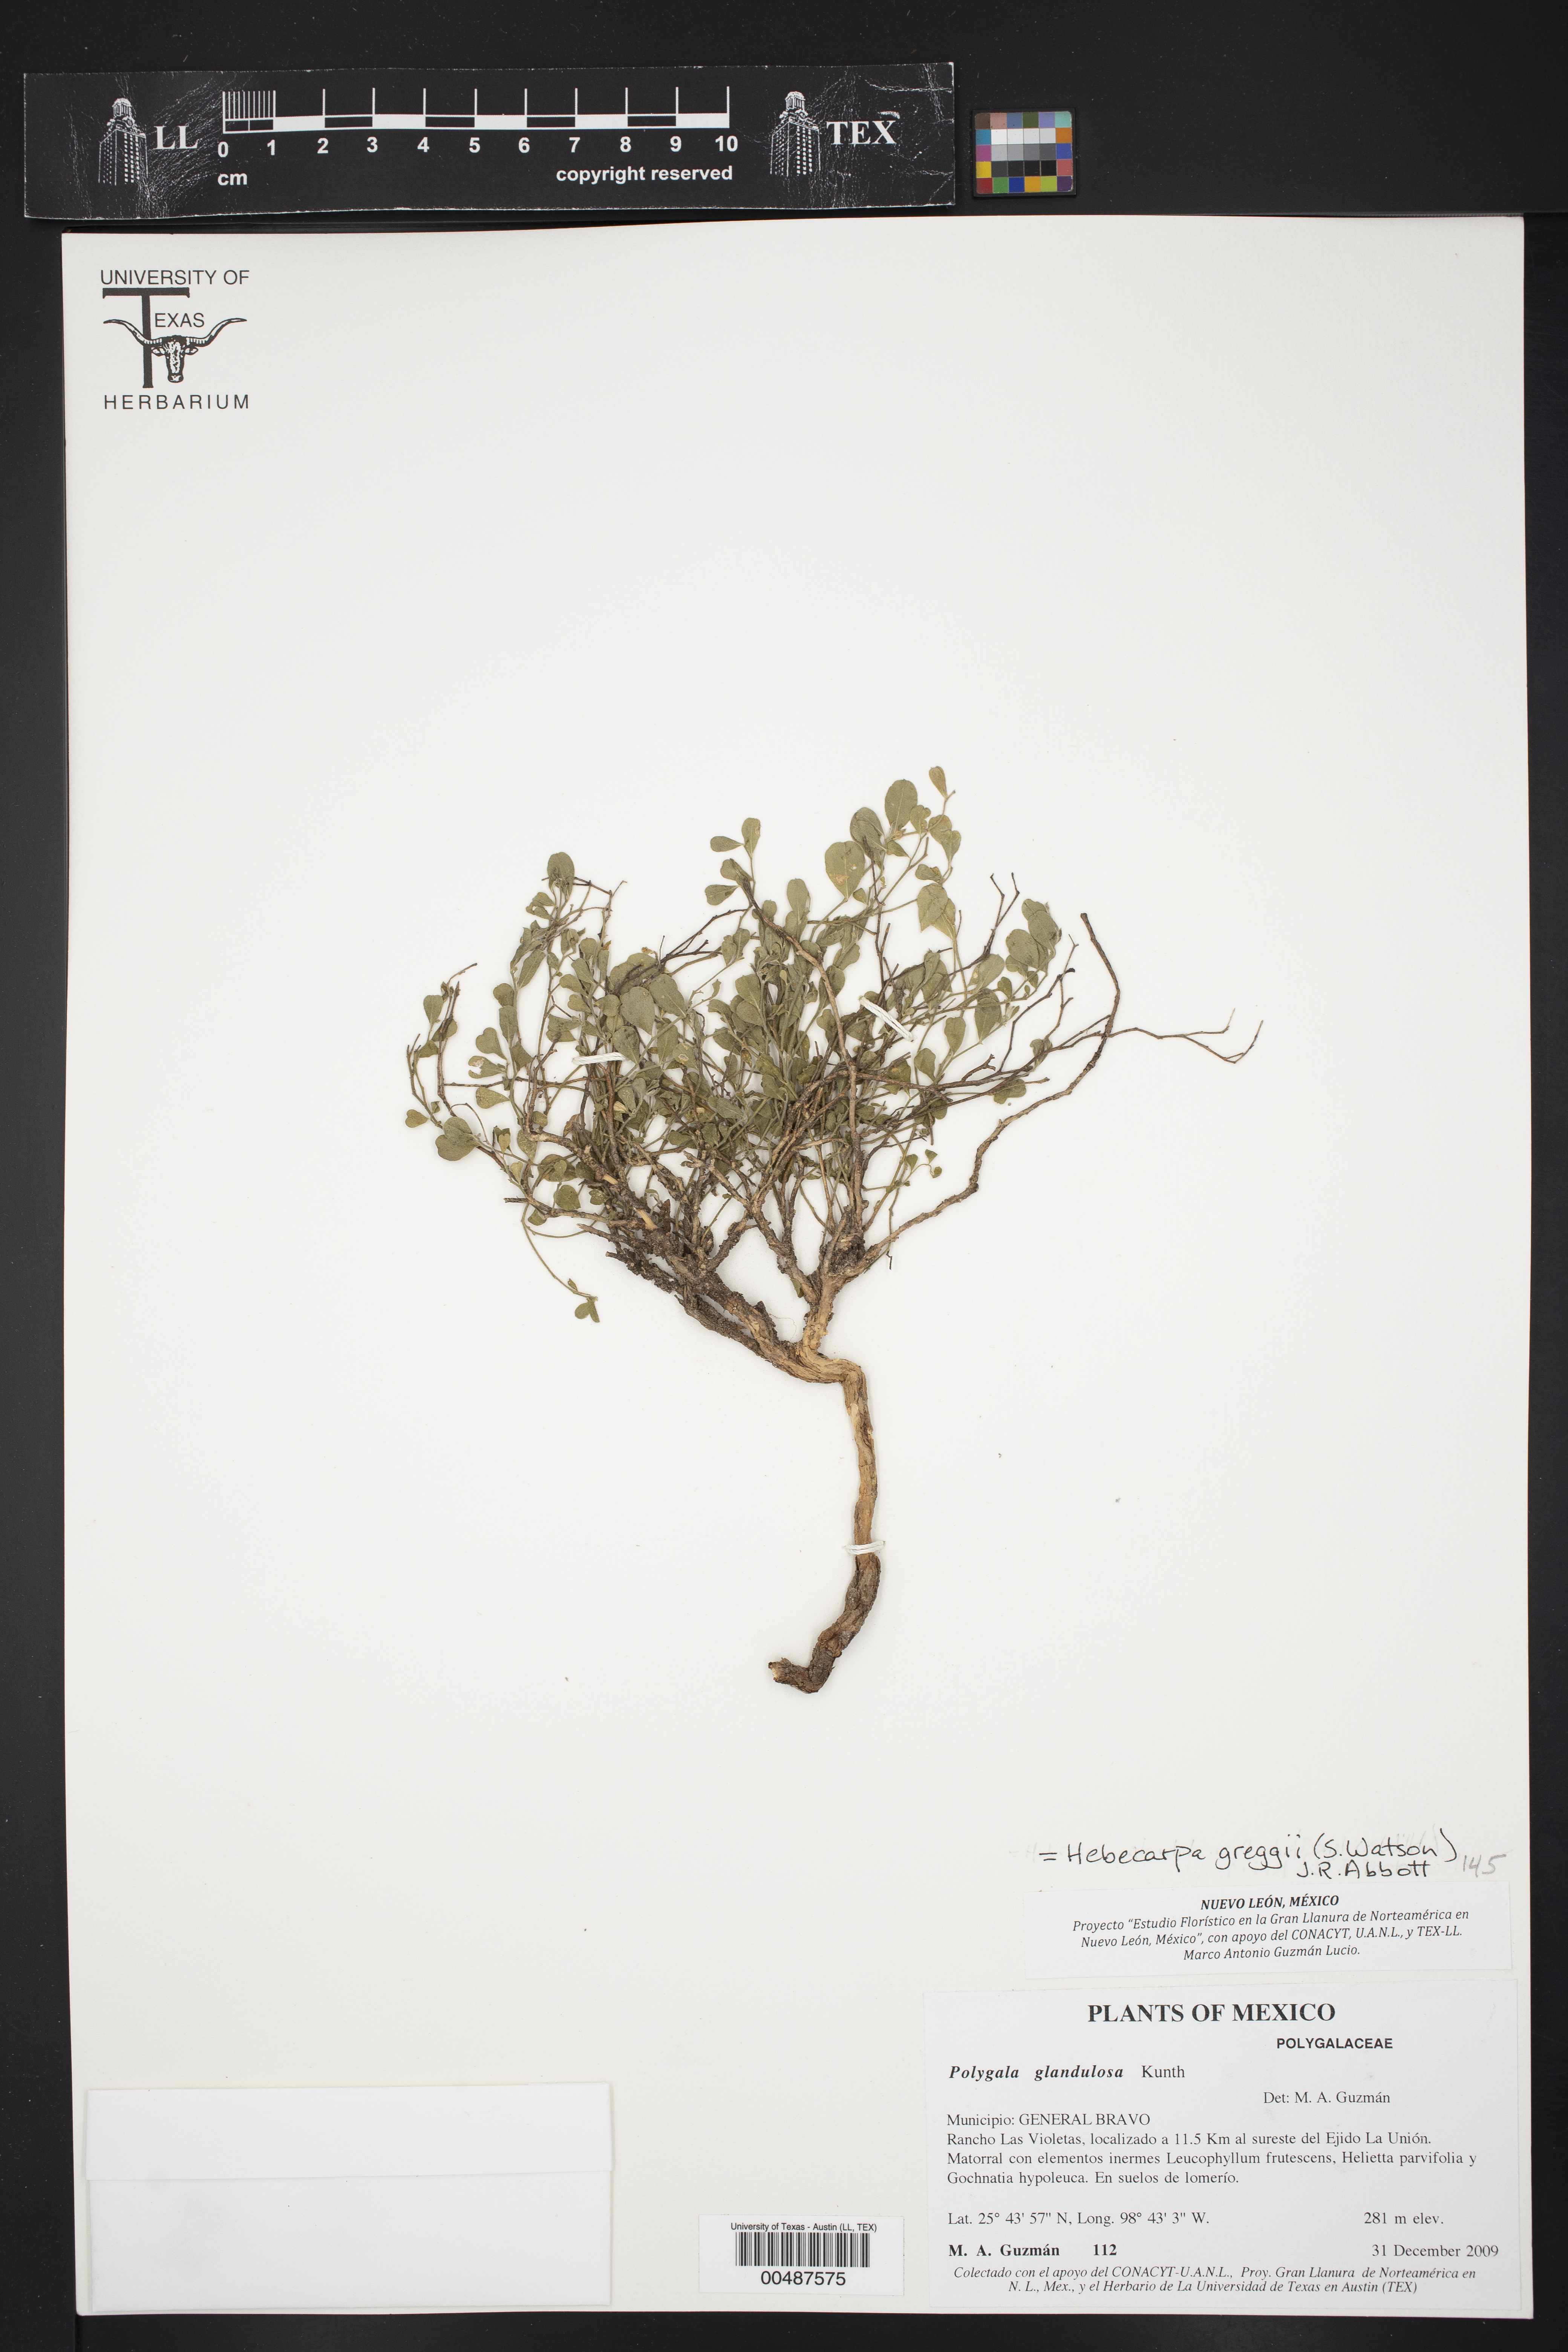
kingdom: Plantae
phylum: Tracheophyta
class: Magnoliopsida
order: Fabales
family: Polygalaceae
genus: Hebecarpa
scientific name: Hebecarpa punctata
